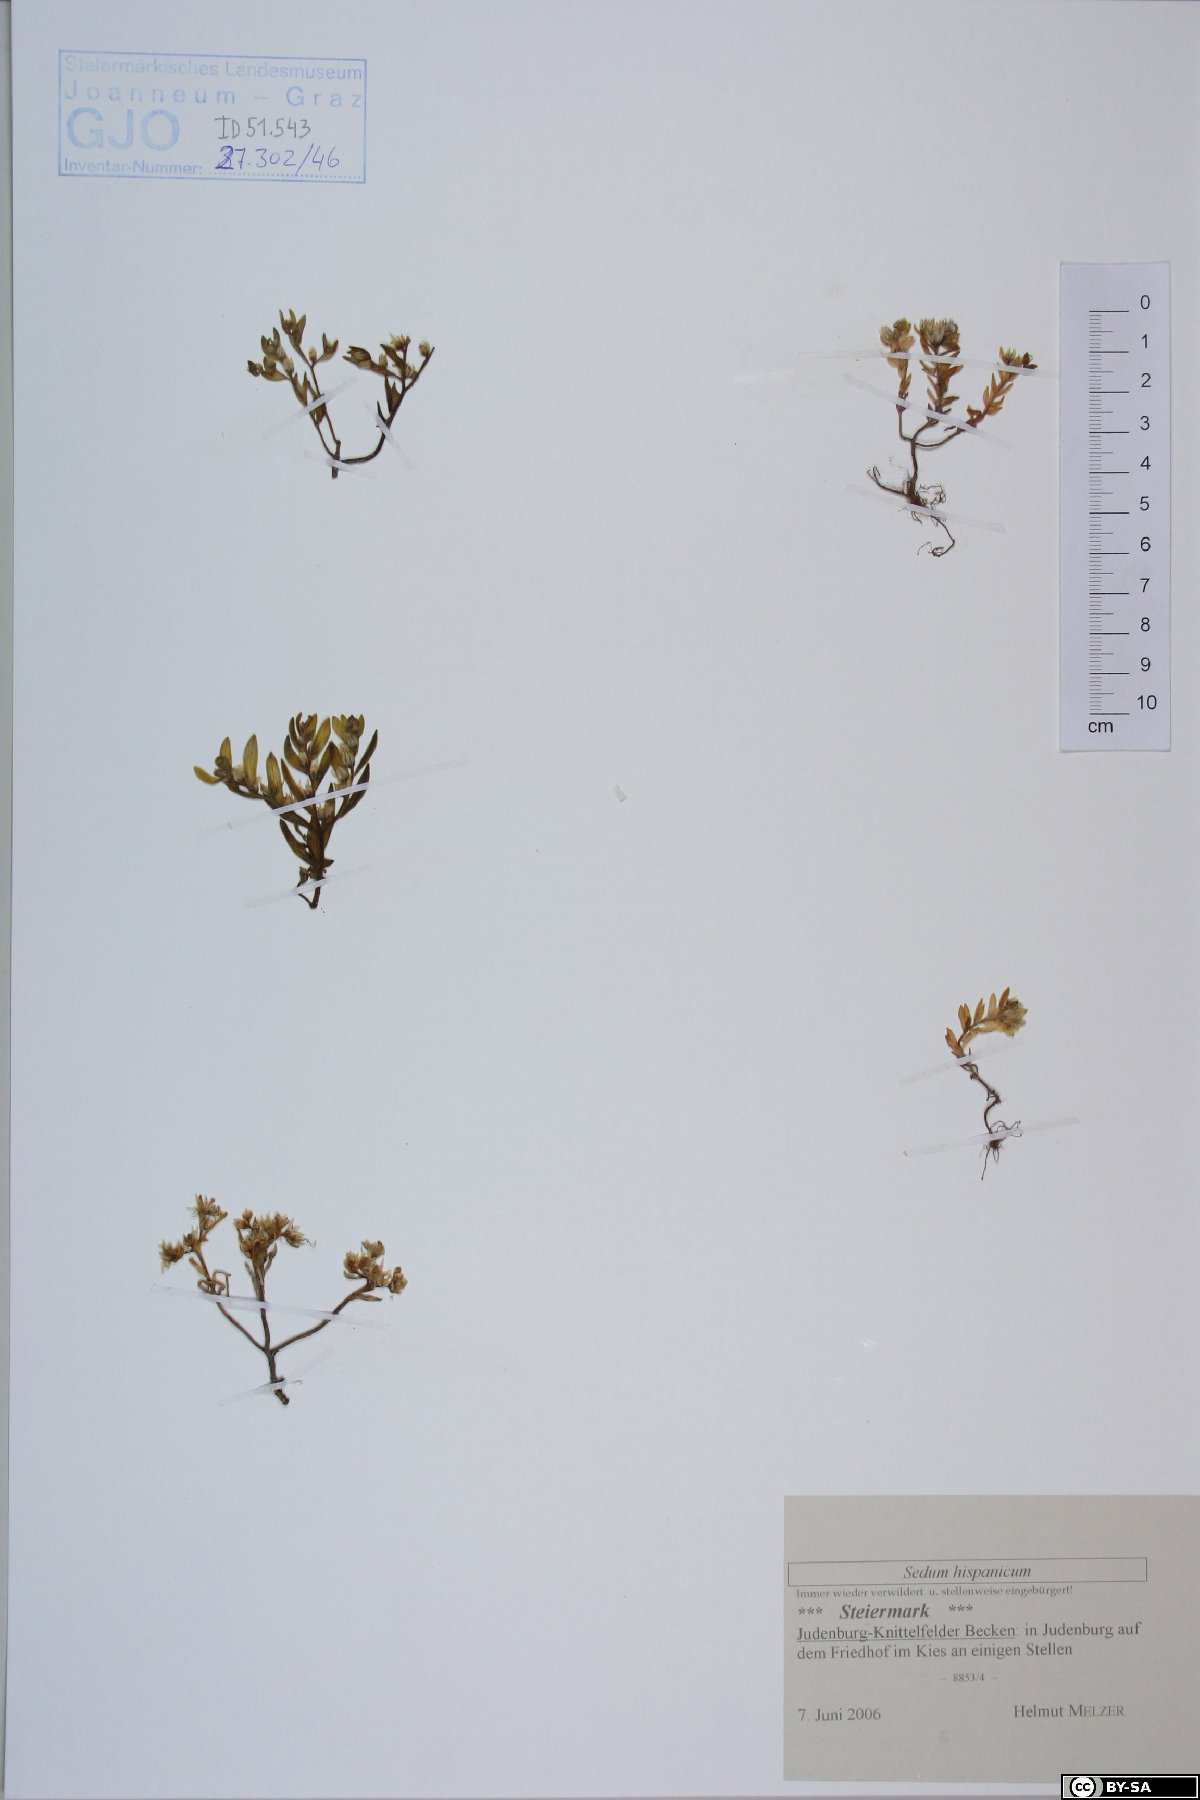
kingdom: Plantae
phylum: Tracheophyta
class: Magnoliopsida
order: Saxifragales
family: Crassulaceae
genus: Sedum
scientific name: Sedum hispanicum
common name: Spanish stonecrop
